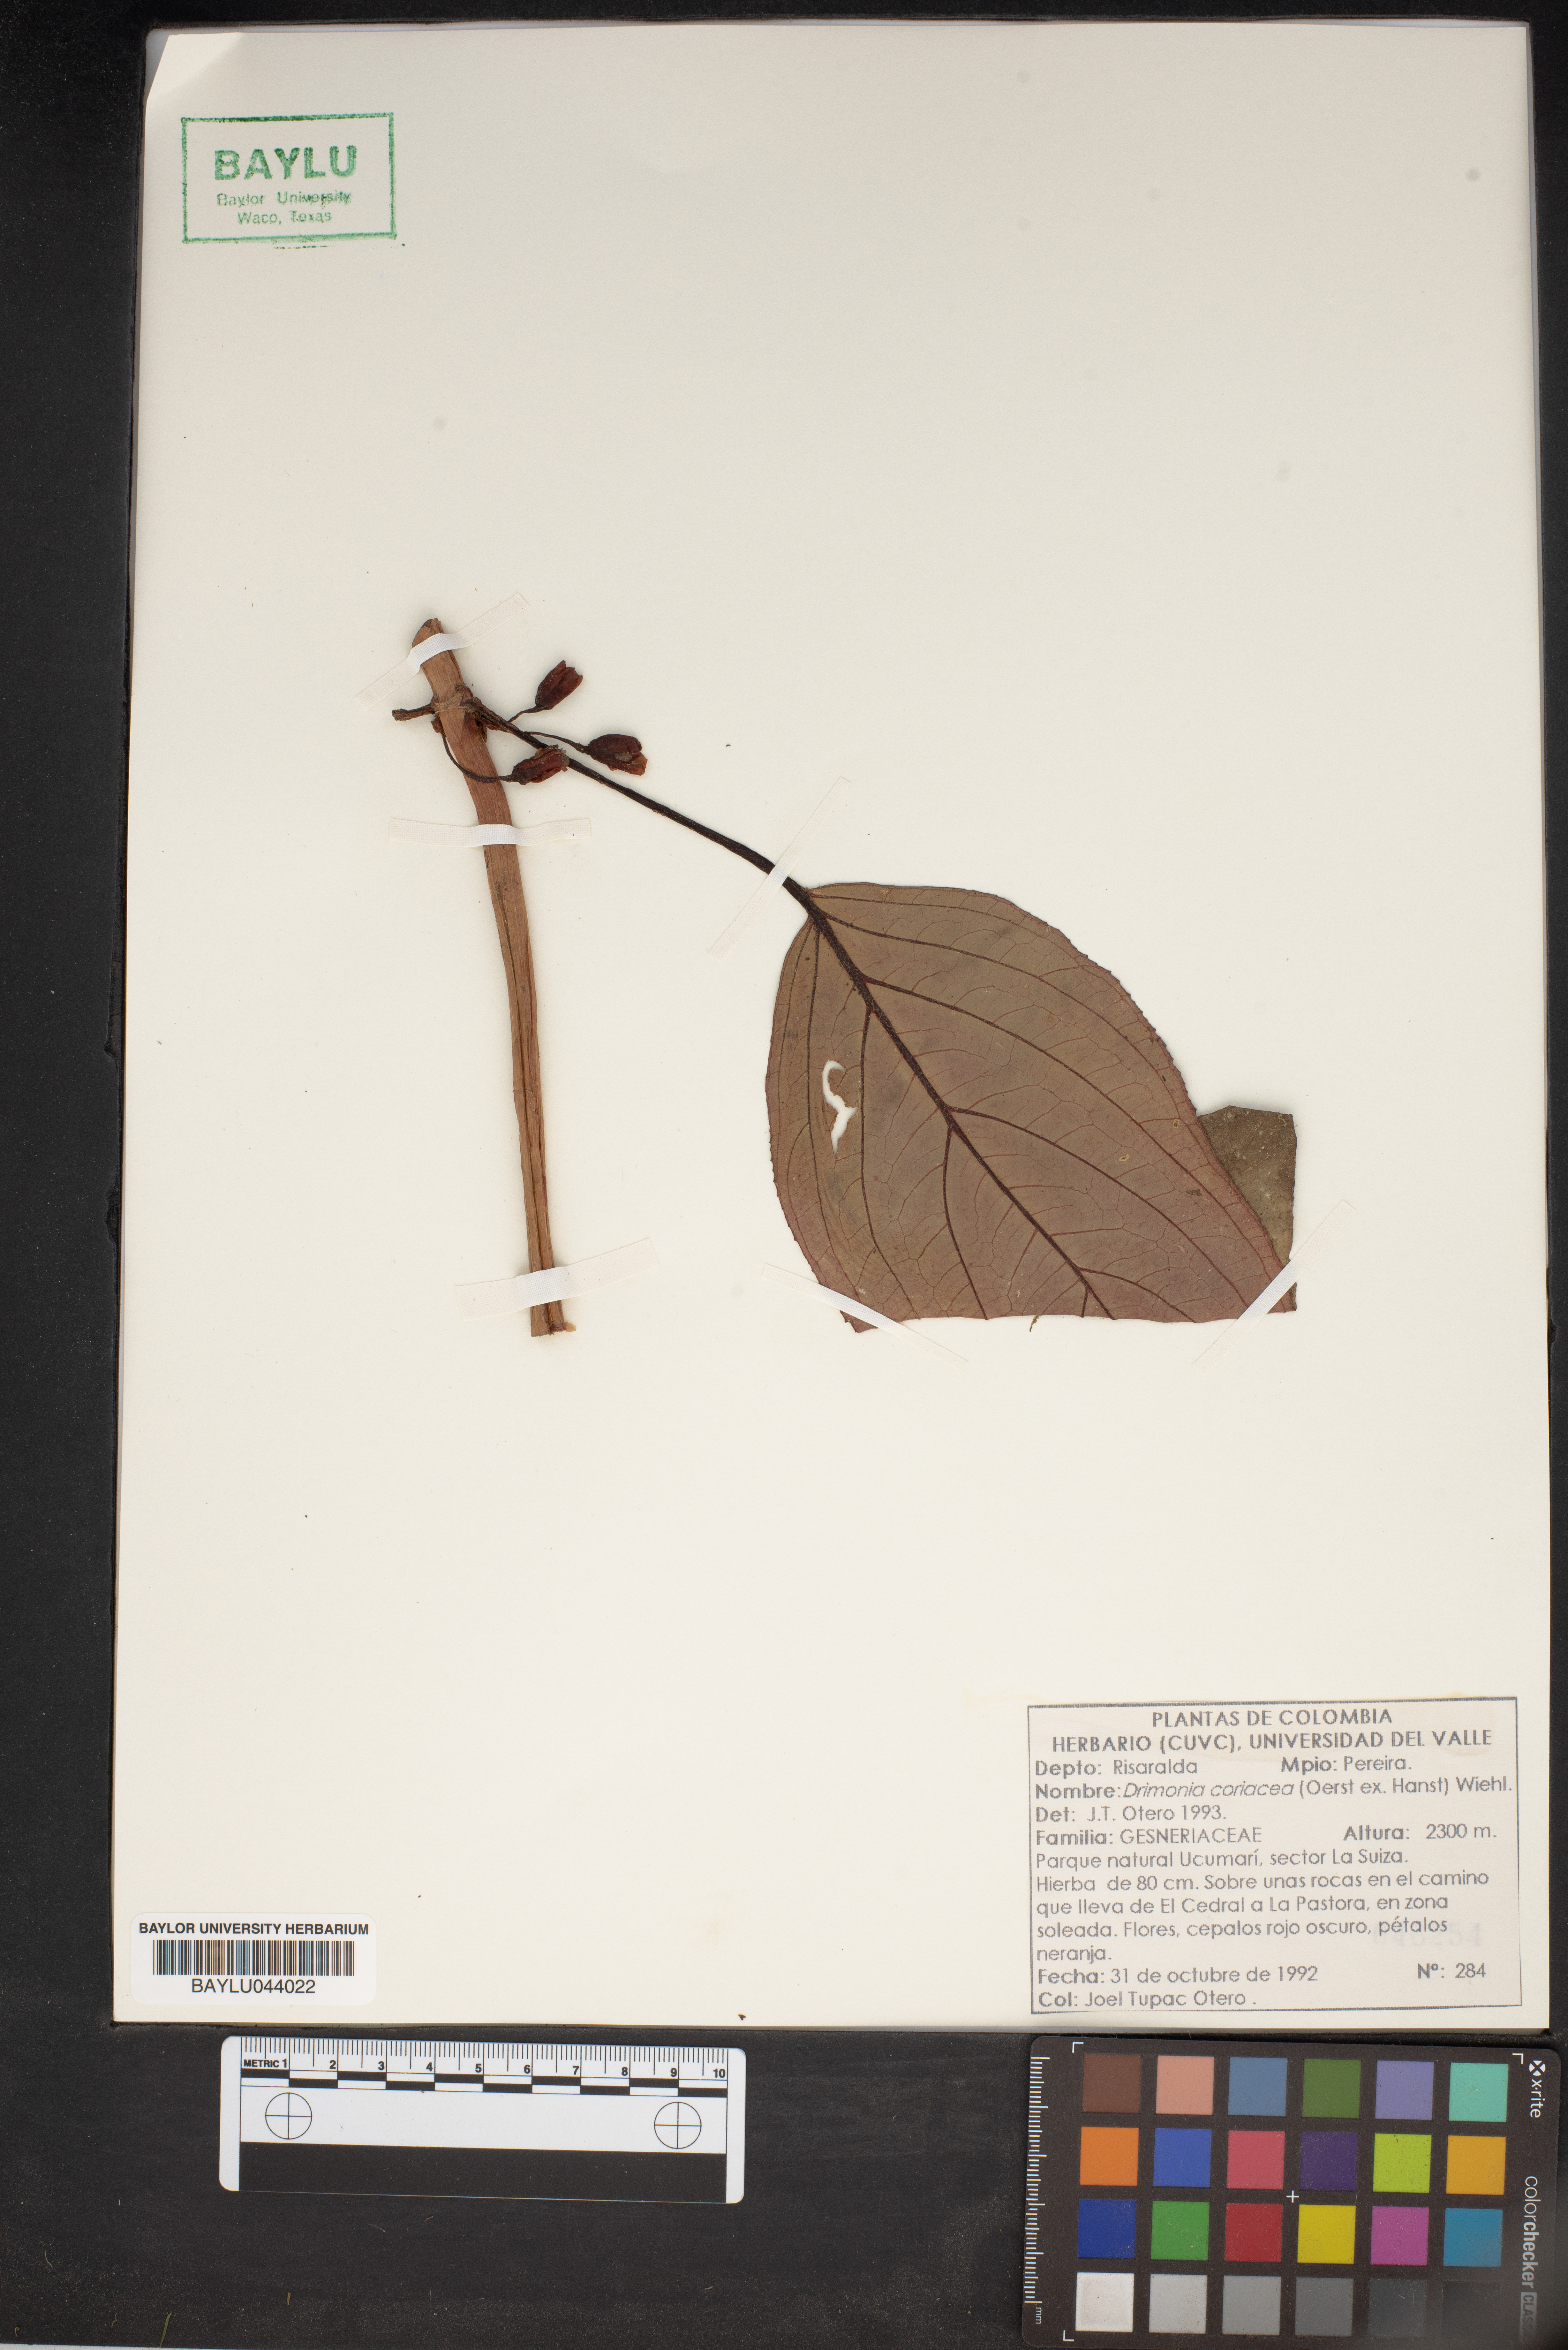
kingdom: Plantae
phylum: Tracheophyta
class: Magnoliopsida
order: Lamiales
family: Gesneriaceae
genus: Drymonia
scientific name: Drymonia coriacea
